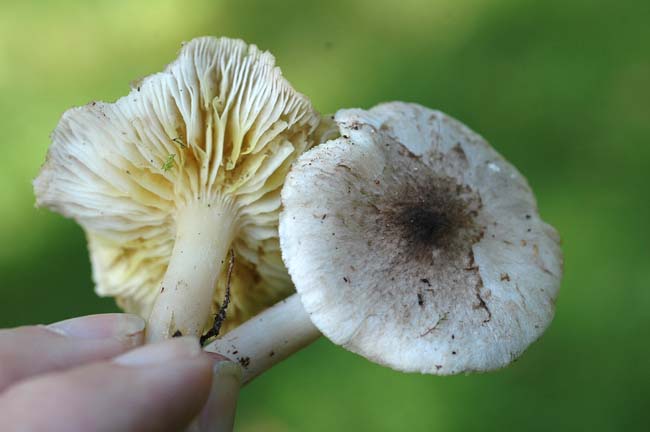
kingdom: Fungi
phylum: Basidiomycota
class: Agaricomycetes
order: Agaricales
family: Tricholomataceae
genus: Tricholoma
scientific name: Tricholoma scalpturatum
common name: gulplettet ridderhat
